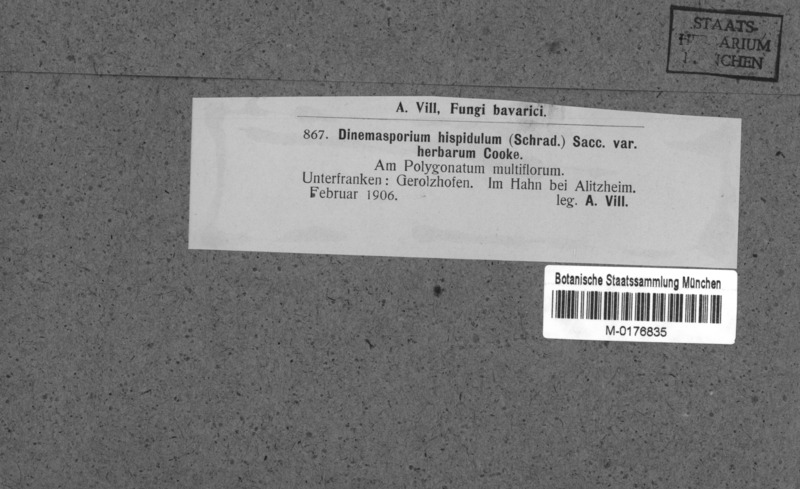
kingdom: Fungi
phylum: Ascomycota
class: Sordariomycetes
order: Chaetosphaeriales
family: Chaetosphaeriaceae
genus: Pseudolachnea
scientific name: Pseudolachnea hispidula
